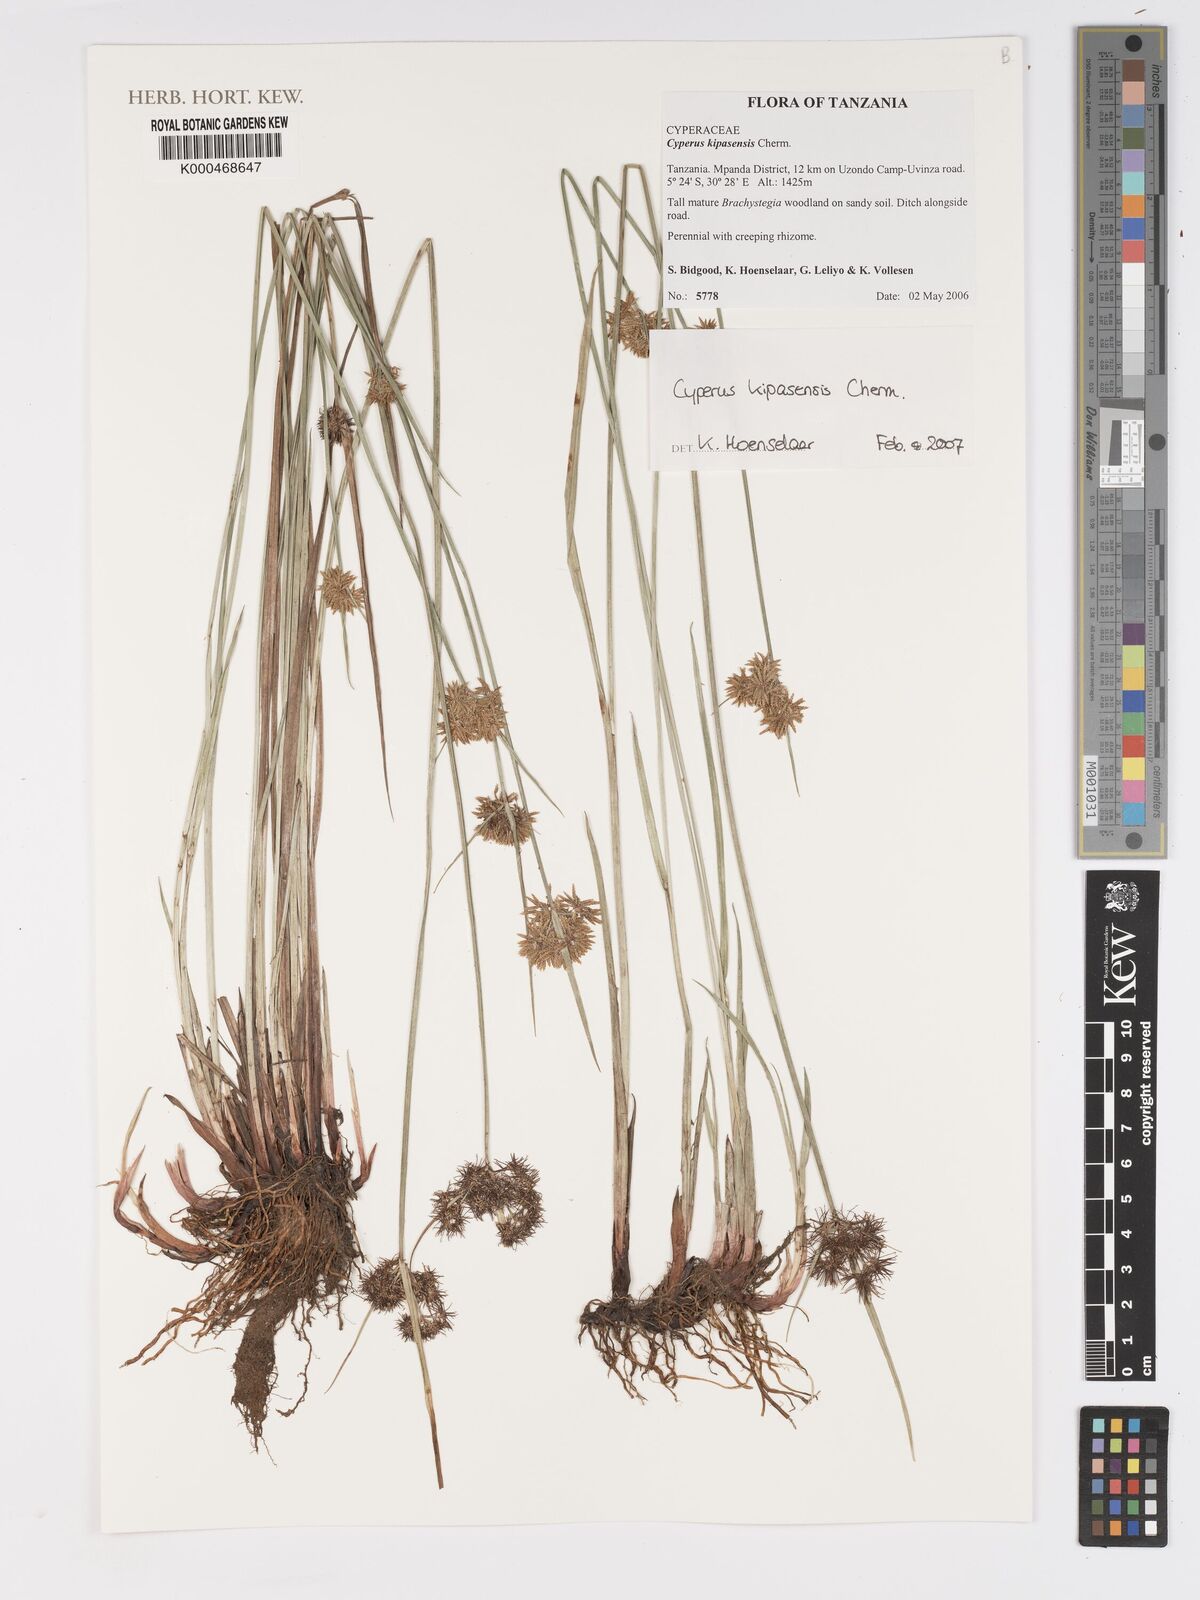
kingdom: Plantae
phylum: Tracheophyta
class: Liliopsida
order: Poales
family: Cyperaceae
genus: Cyperus
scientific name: Cyperus kipasensis
